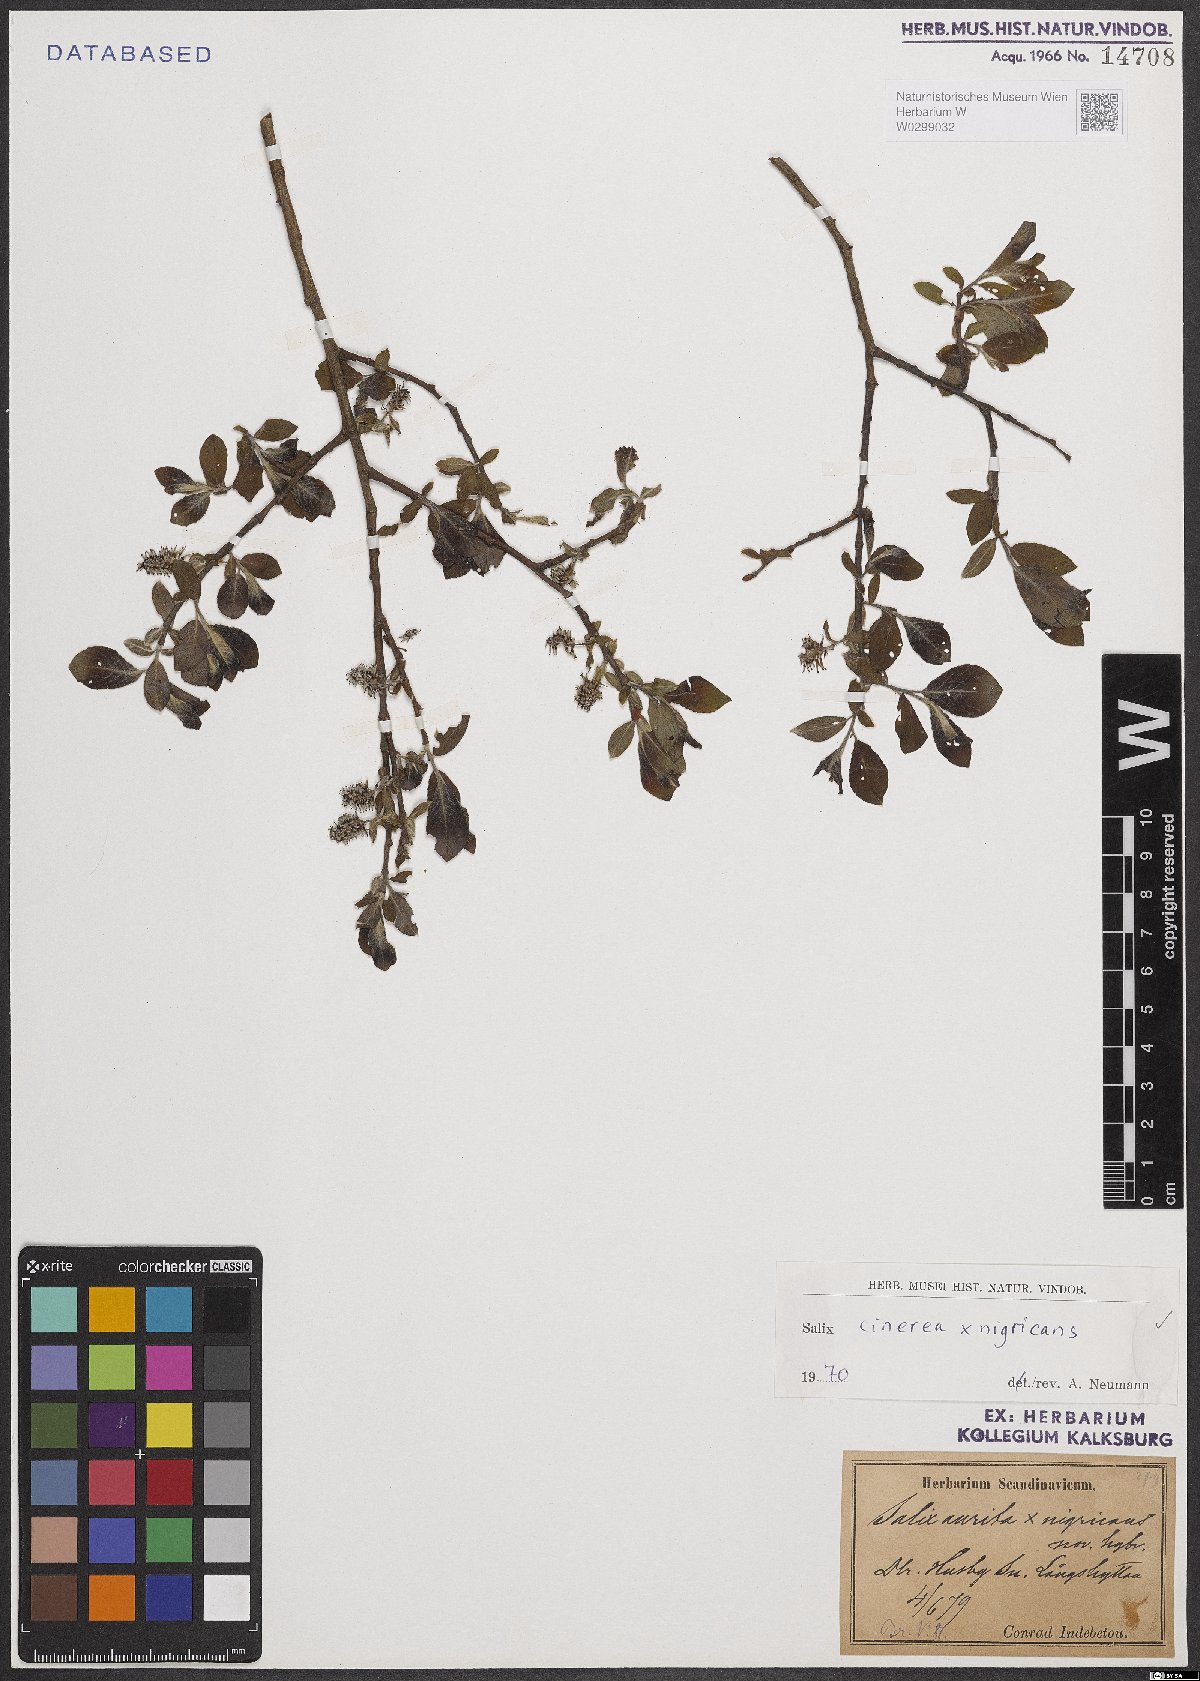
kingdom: Plantae
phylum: Tracheophyta
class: Magnoliopsida
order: Malpighiales
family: Salicaceae
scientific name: Salicaceae
